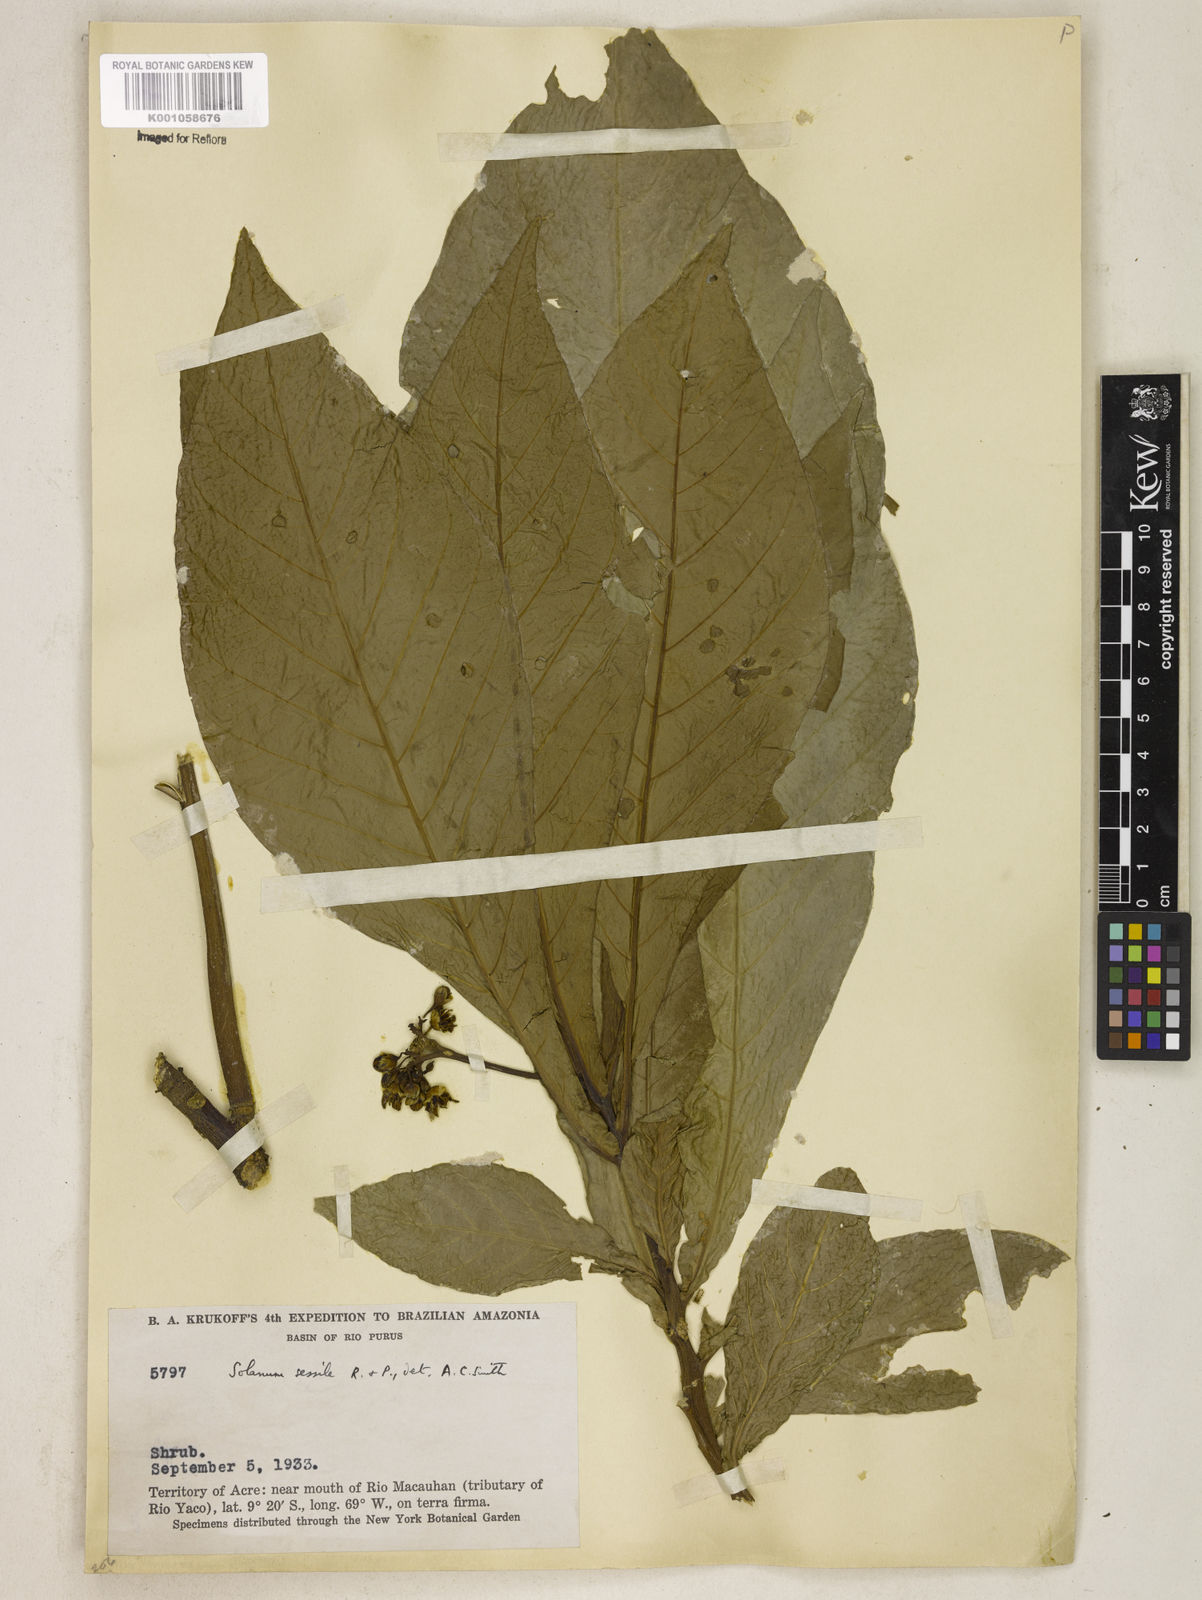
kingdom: Plantae
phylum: Tracheophyta
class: Magnoliopsida
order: Solanales
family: Solanaceae
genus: Solanum
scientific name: Solanum sessile
